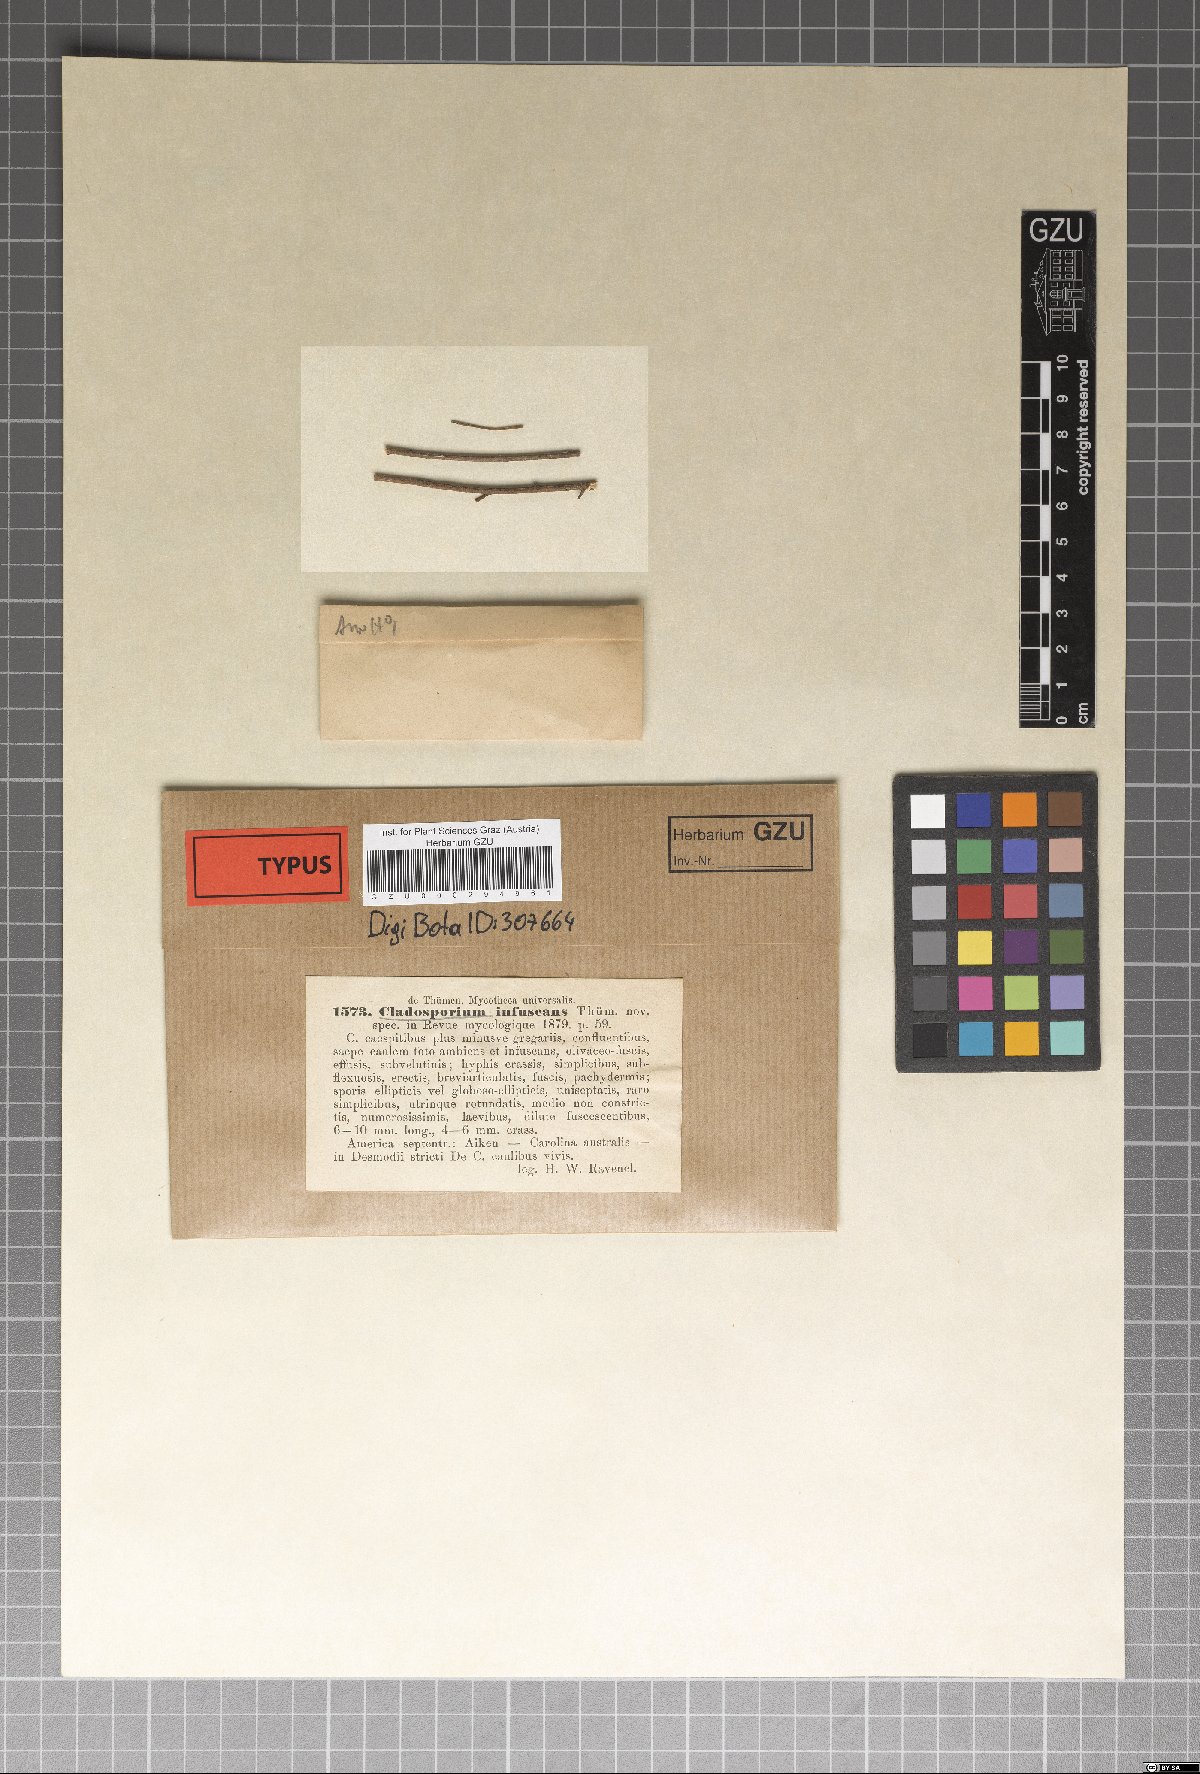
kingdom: Fungi
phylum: Ascomycota
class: Dothideomycetes
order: Pleosporales
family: Torulaceae
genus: Dendryphiella
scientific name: Dendryphiella infuscans
